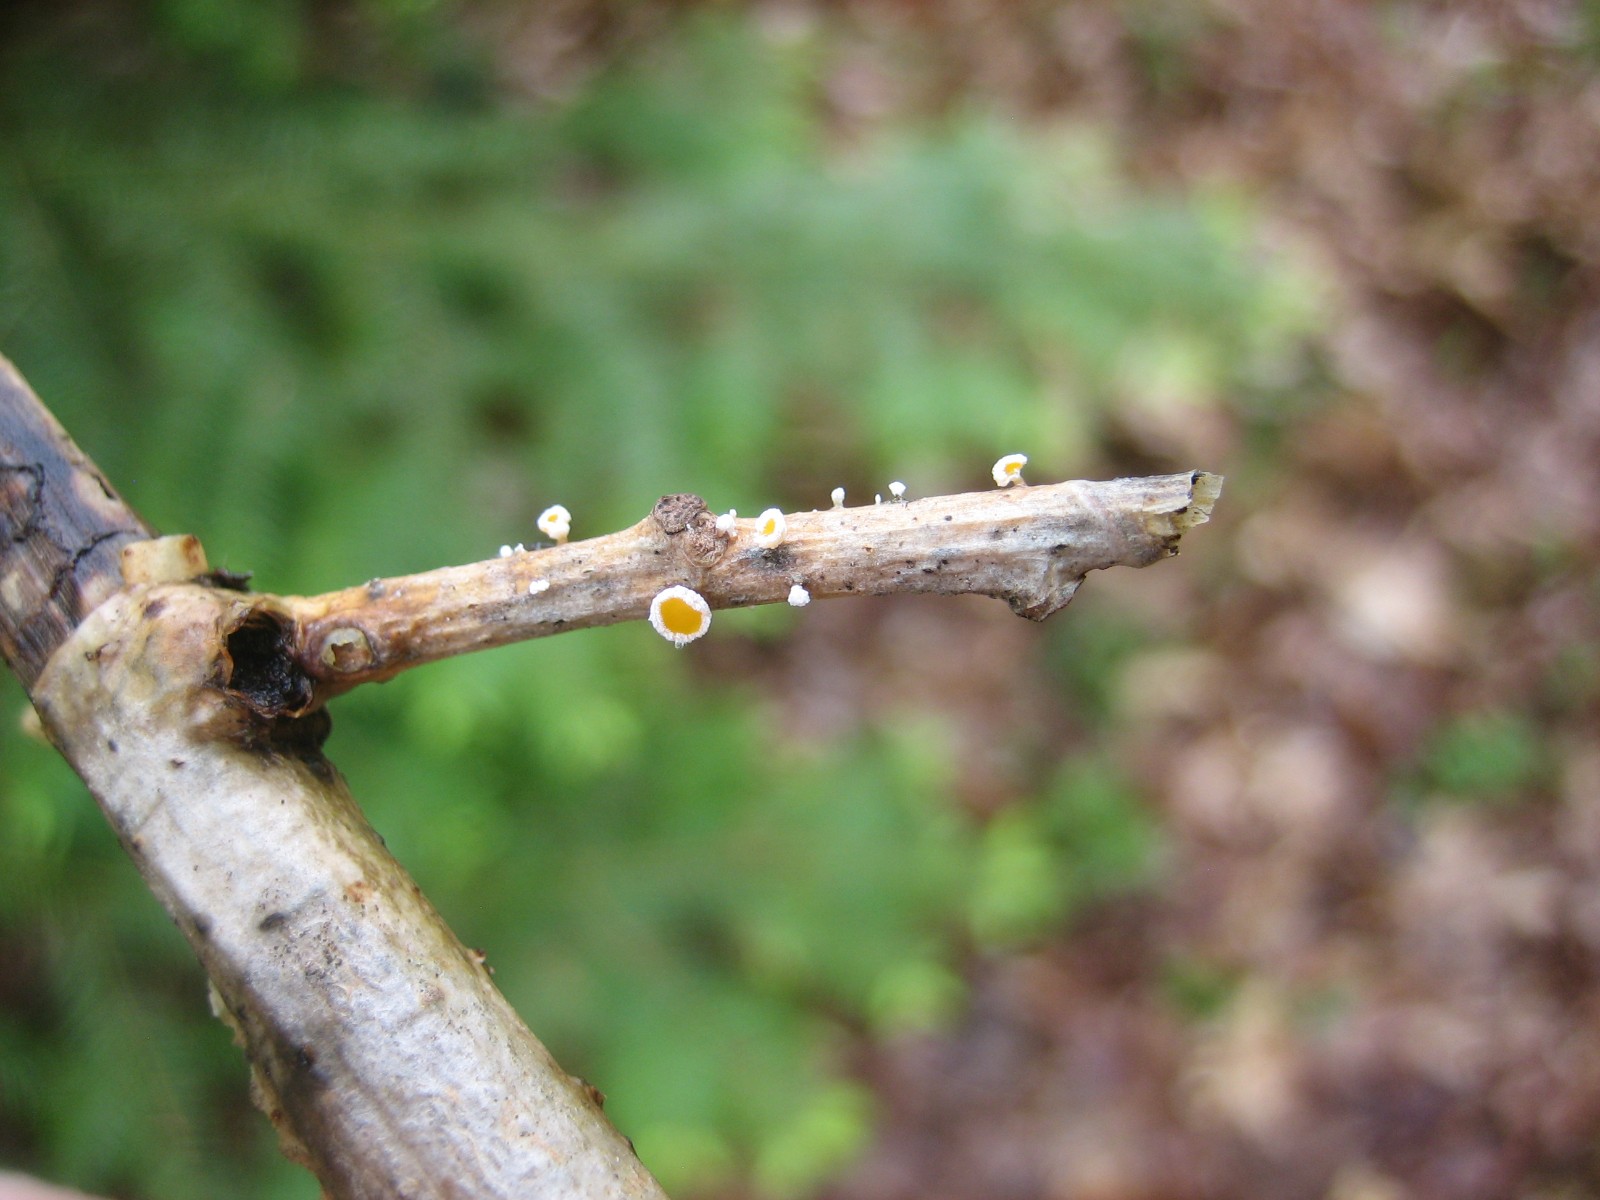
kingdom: Fungi
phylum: Ascomycota
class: Leotiomycetes
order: Helotiales
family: Lachnaceae
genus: Capitotricha
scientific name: Capitotricha bicolor
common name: prægtig frynseskive
